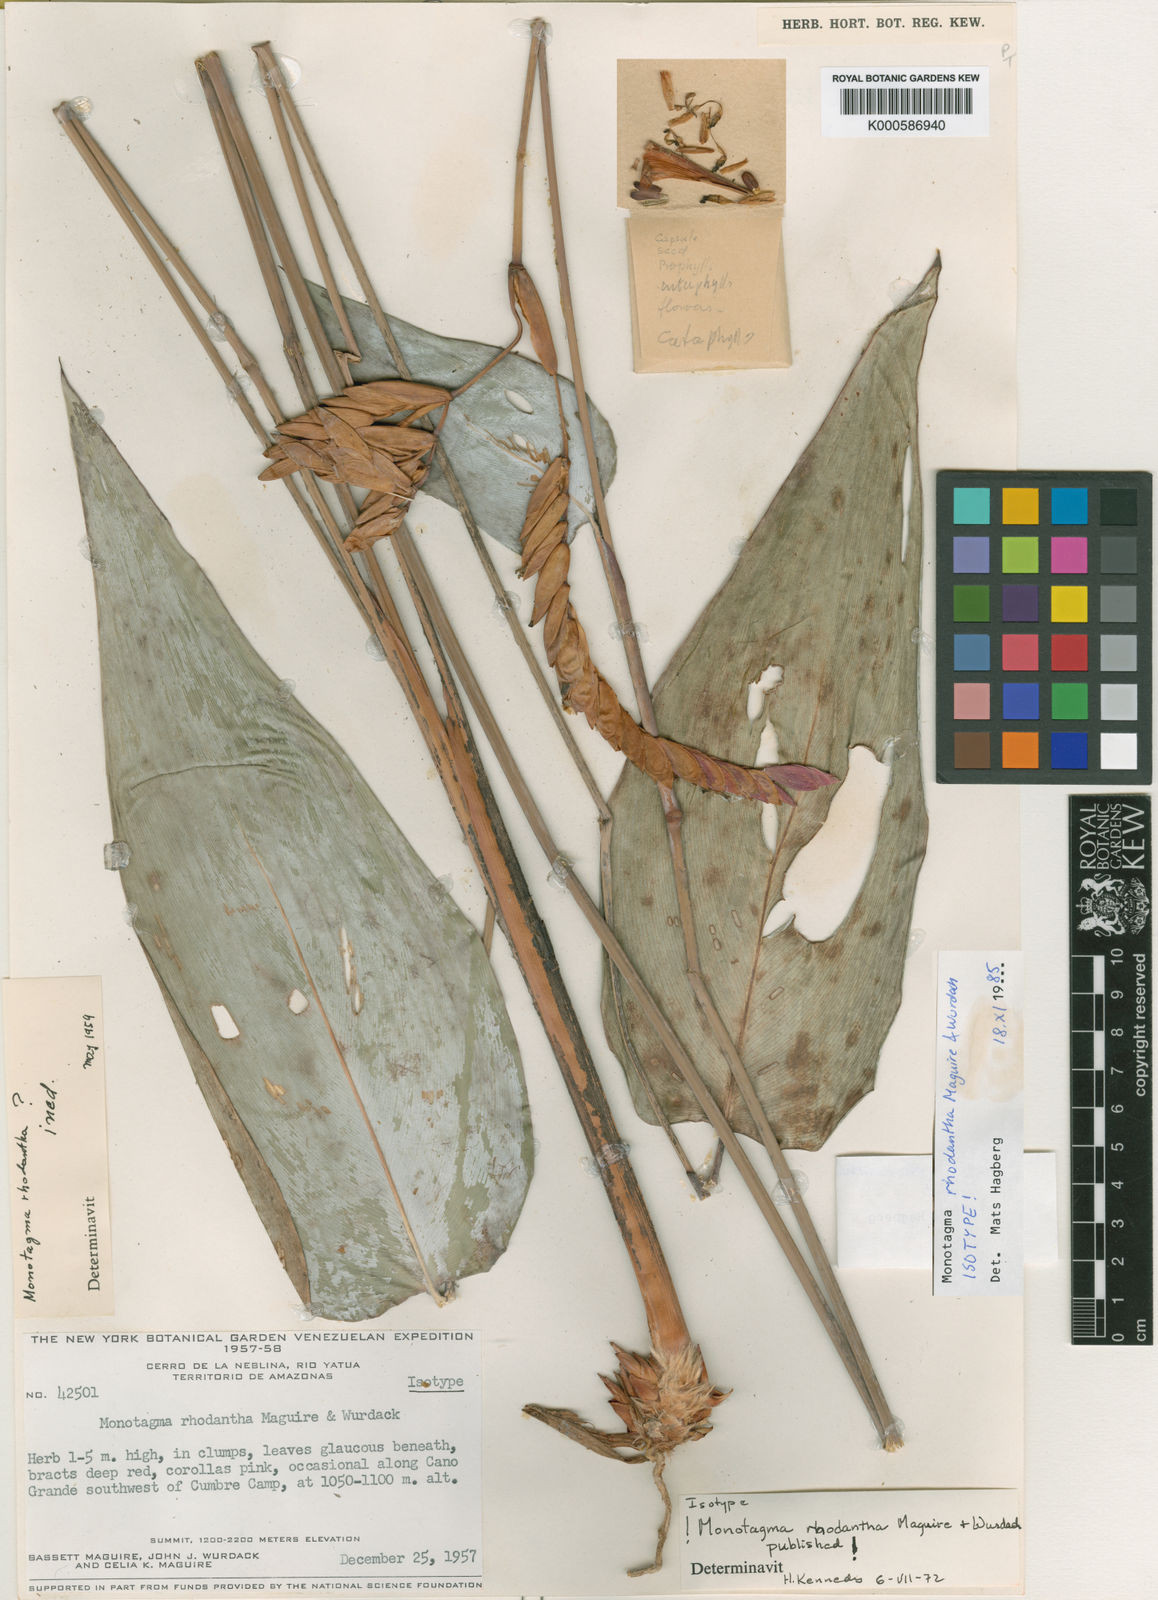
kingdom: Plantae
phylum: Tracheophyta
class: Liliopsida
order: Zingiberales
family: Marantaceae
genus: Monotagma
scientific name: Monotagma rhodanthum
